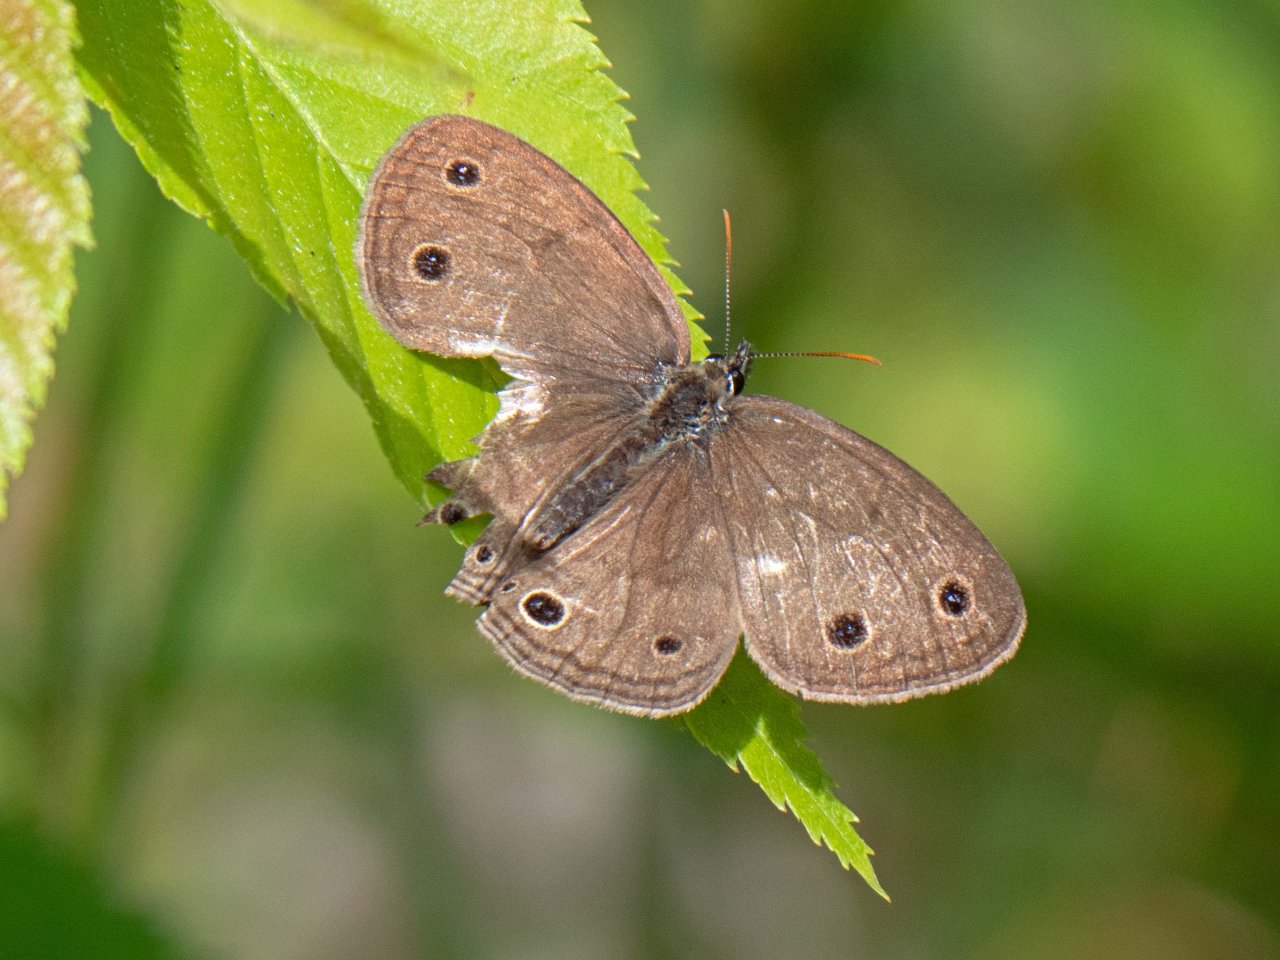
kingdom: Animalia
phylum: Arthropoda
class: Insecta
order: Lepidoptera
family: Nymphalidae
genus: Euptychia
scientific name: Euptychia cymela
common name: Little Wood Satyr
